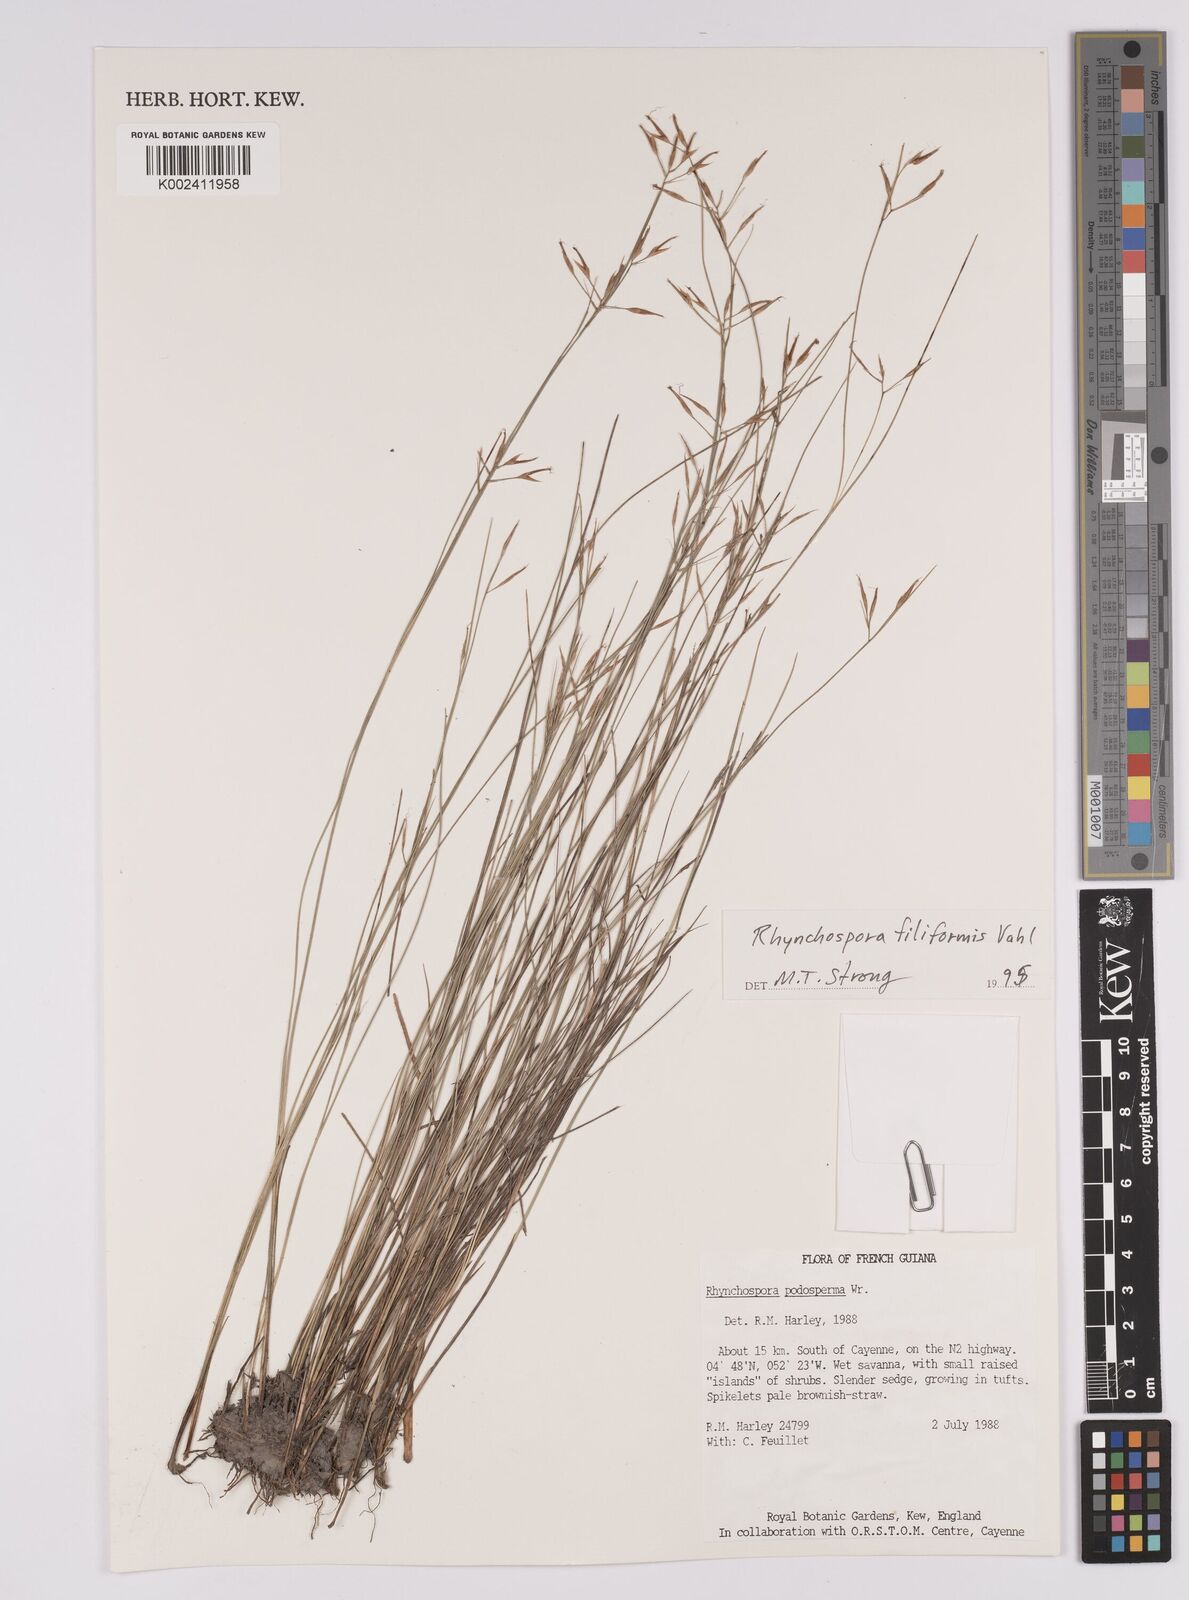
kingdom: Plantae
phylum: Tracheophyta
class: Liliopsida
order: Poales
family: Cyperaceae
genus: Rhynchospora
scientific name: Rhynchospora filiformis
